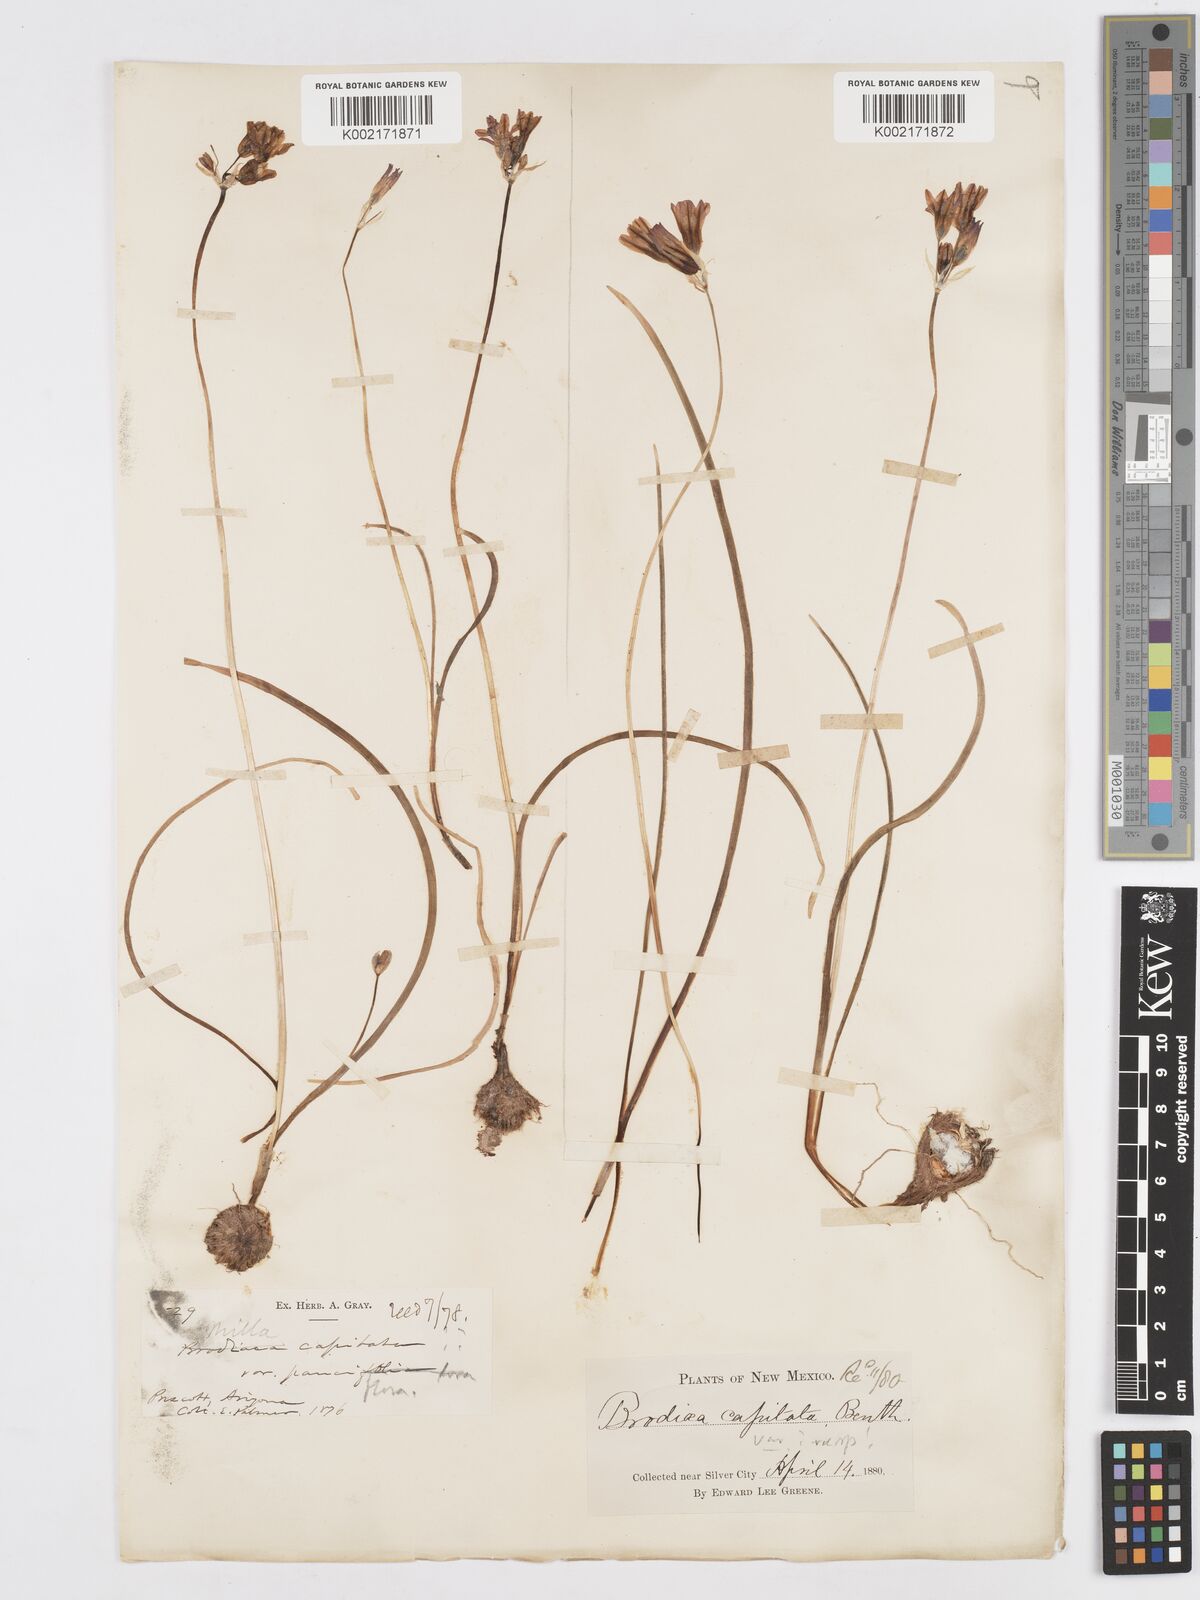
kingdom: Plantae
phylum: Tracheophyta
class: Liliopsida
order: Asparagales
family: Asparagaceae
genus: Dichelostemma
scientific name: Dichelostemma congestum
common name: Fork-tooth ookow
